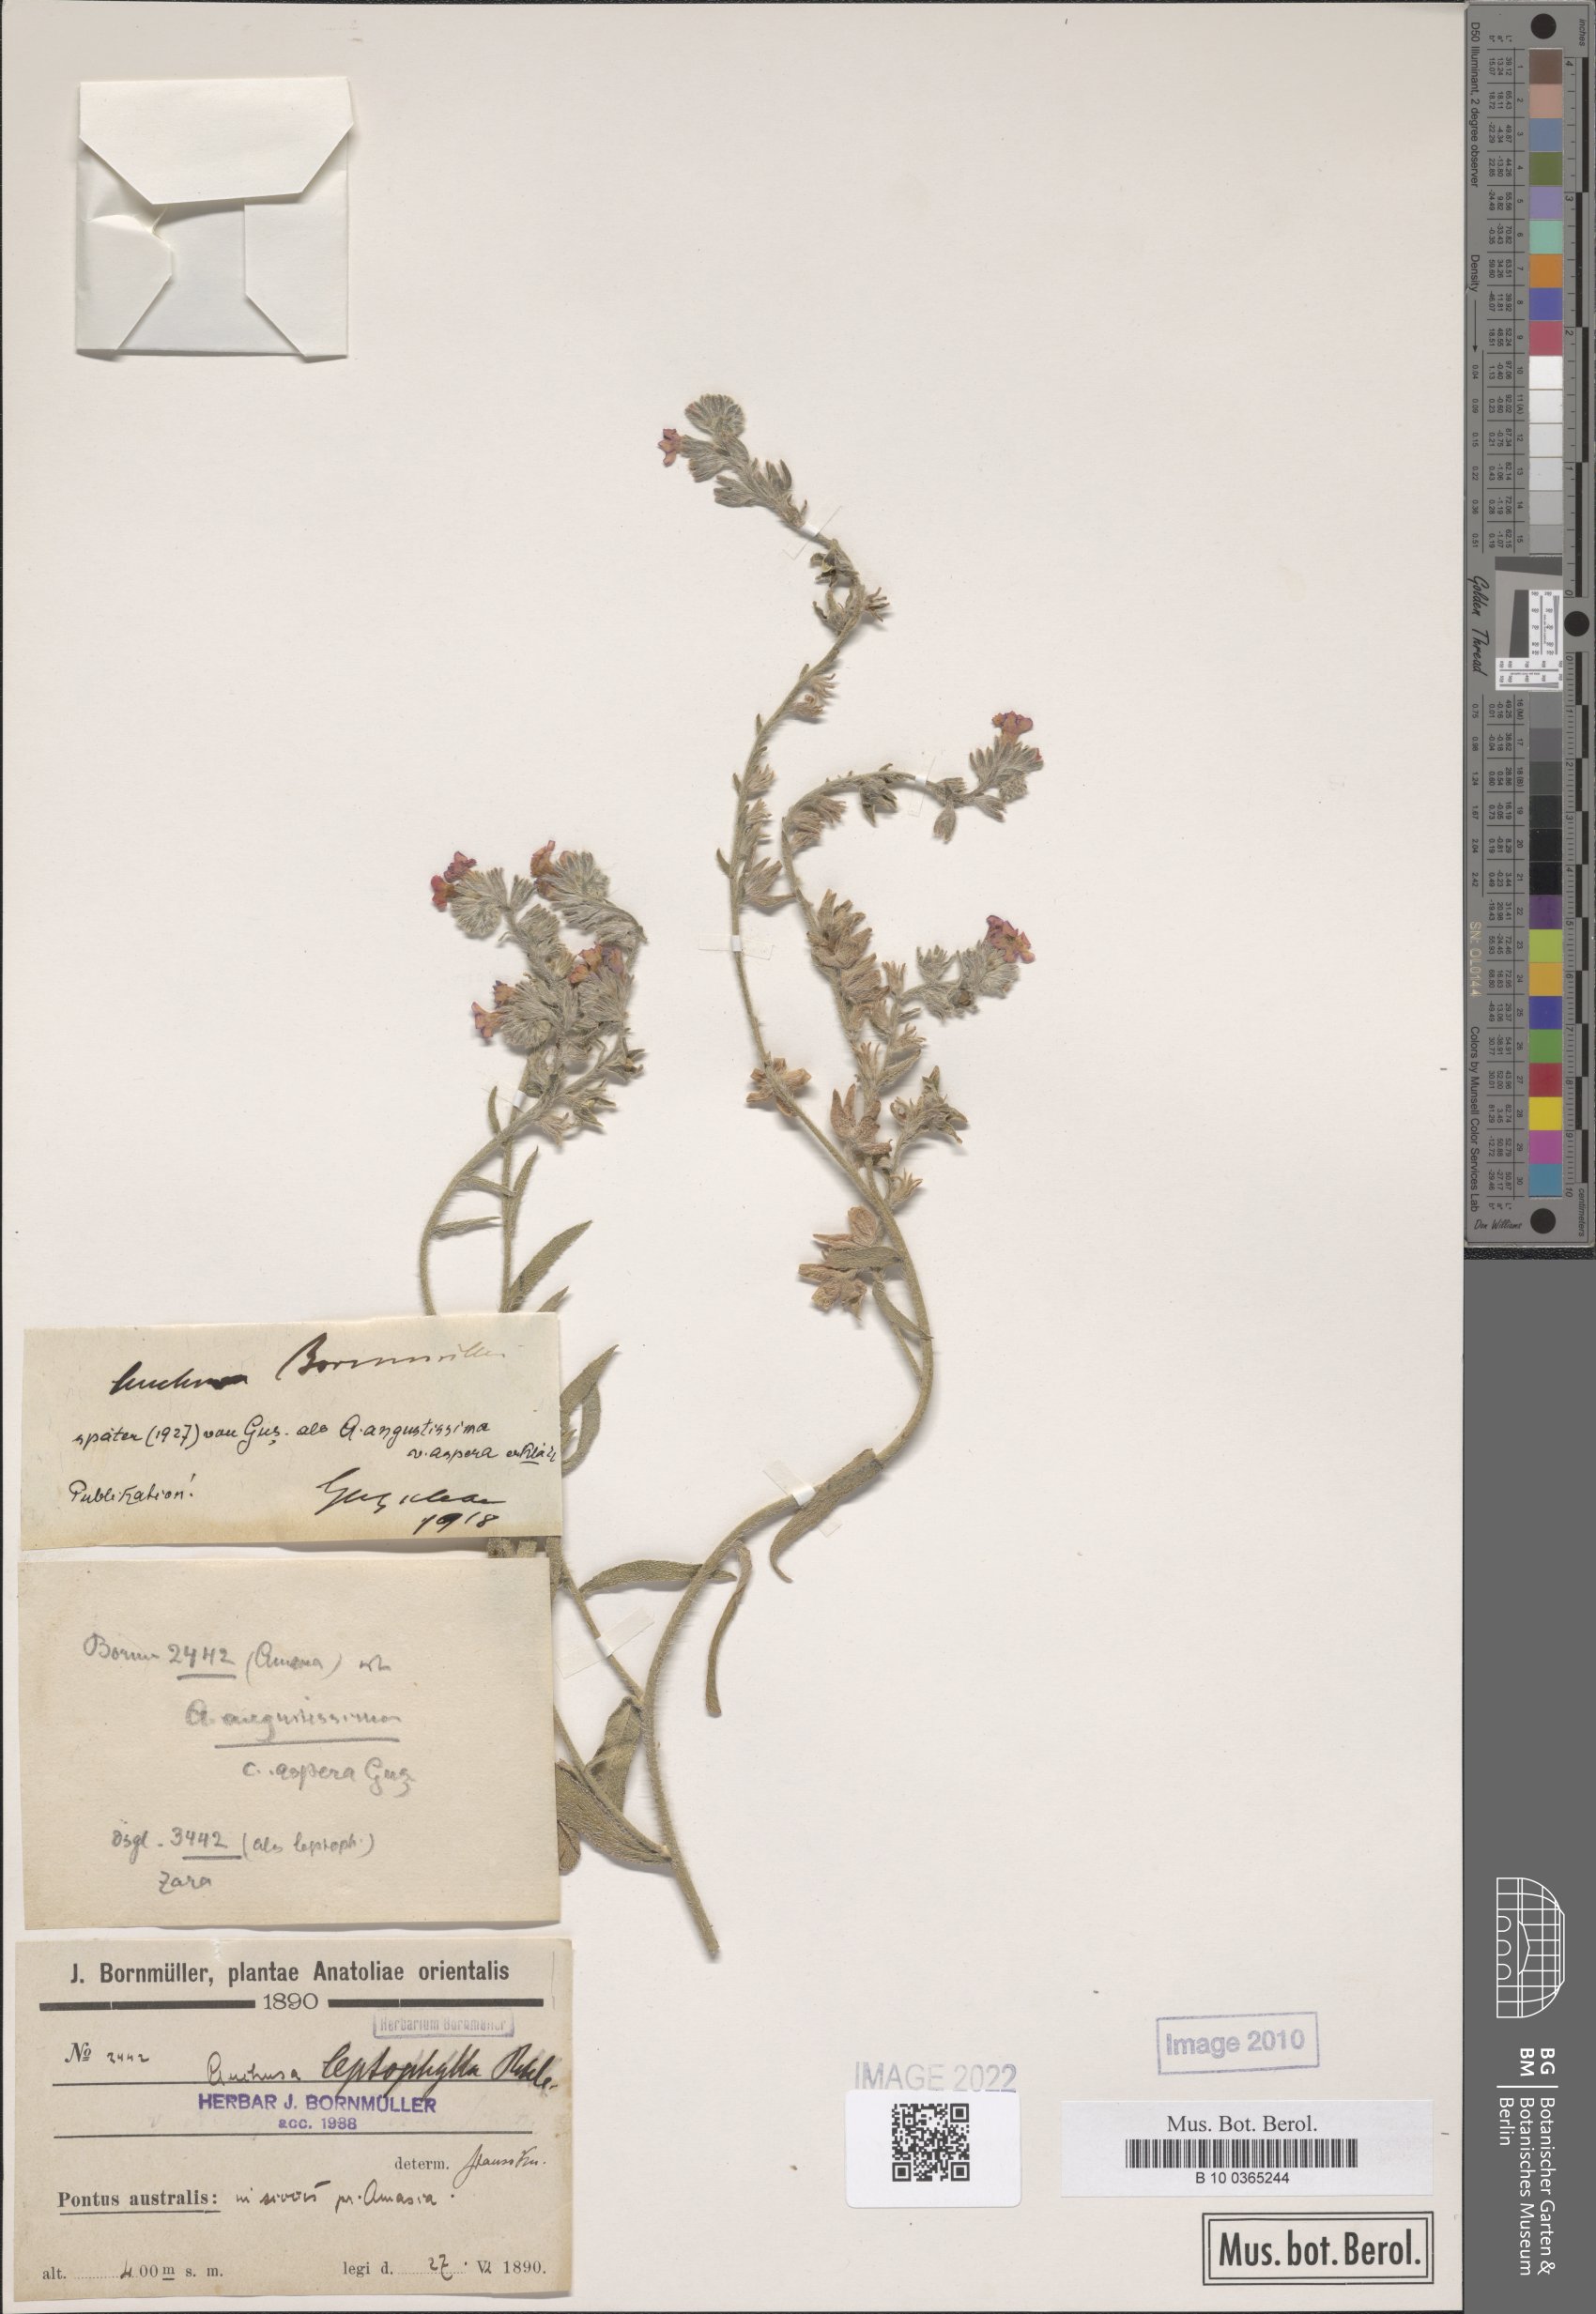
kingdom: Plantae
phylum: Tracheophyta
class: Magnoliopsida
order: Boraginales
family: Boraginaceae
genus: Anchusa
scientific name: Anchusa leptophylla
